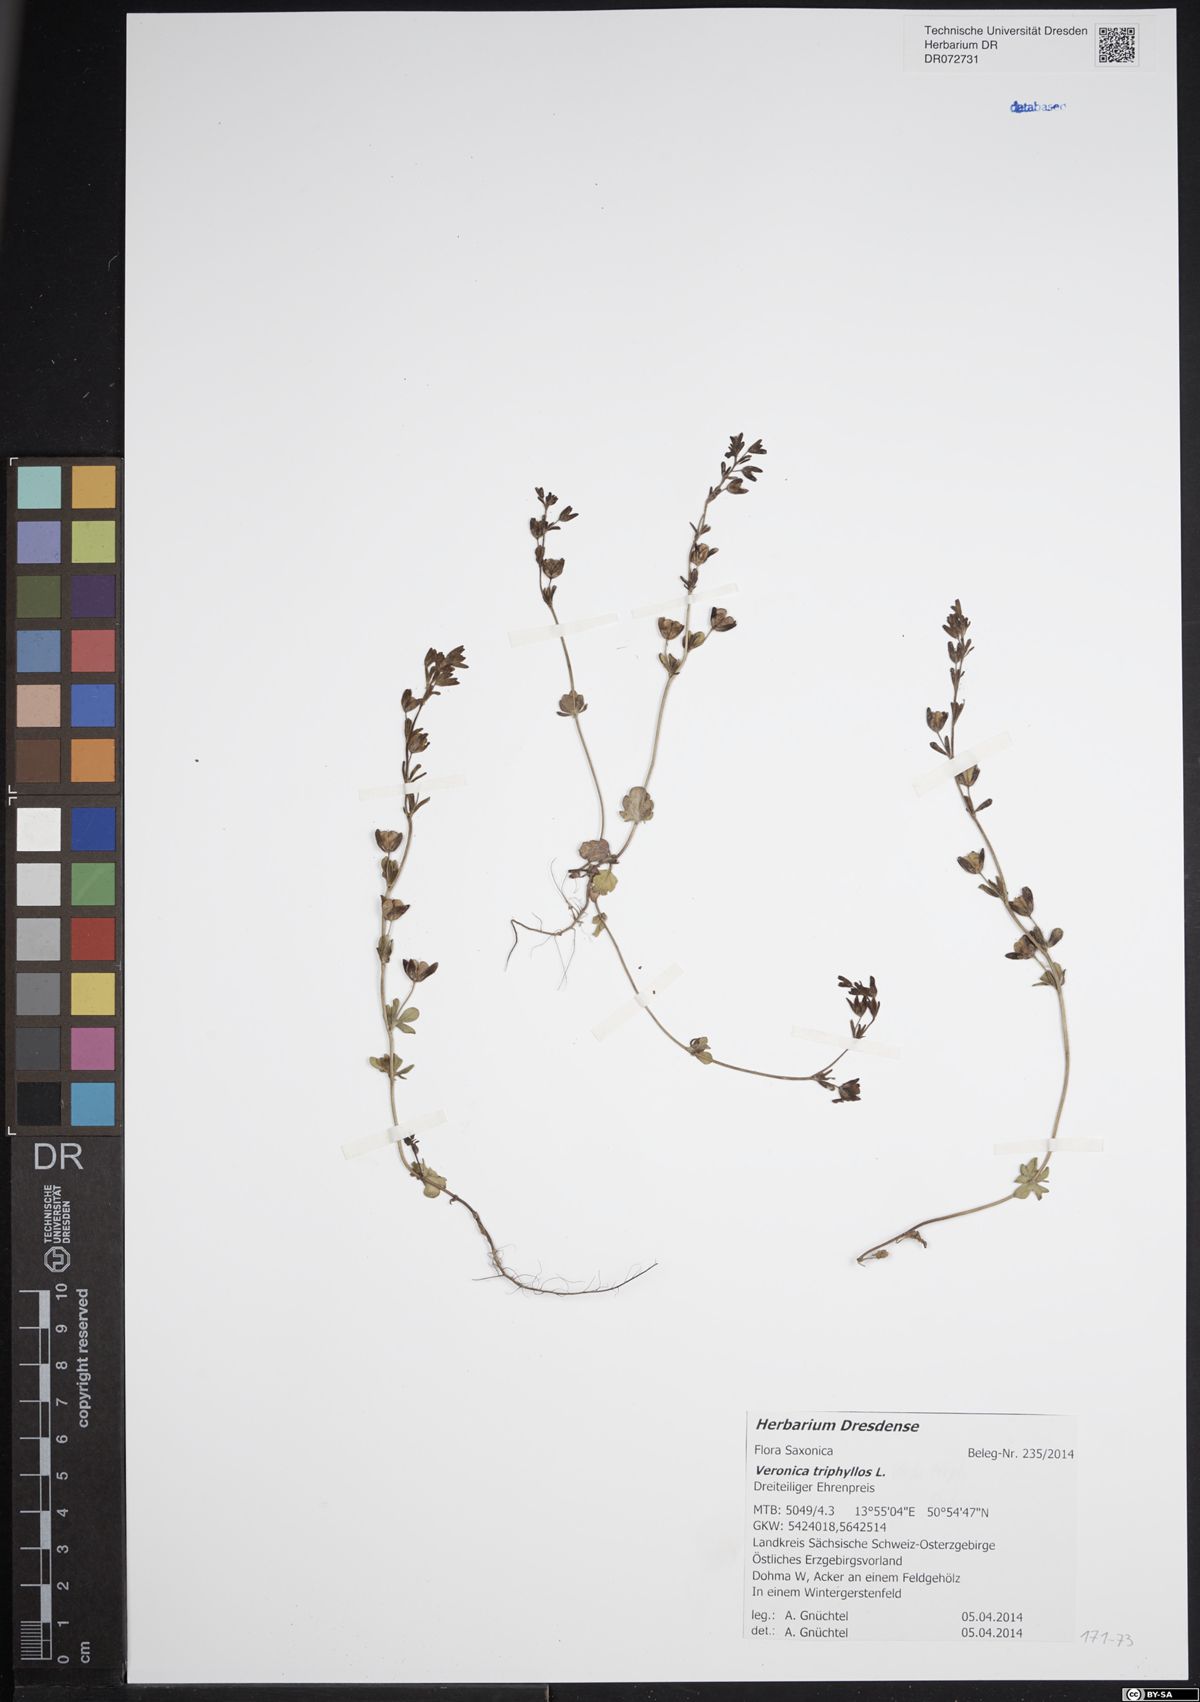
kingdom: Plantae
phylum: Tracheophyta
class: Magnoliopsida
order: Lamiales
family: Plantaginaceae
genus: Veronica
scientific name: Veronica triphyllos
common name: Fingered speedwell
